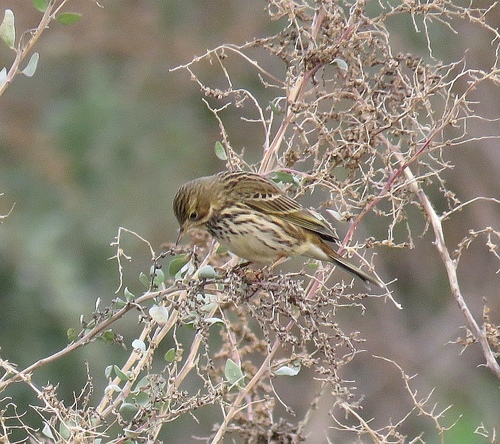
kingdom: Animalia
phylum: Chordata
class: Aves
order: Passeriformes
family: Motacillidae
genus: Anthus
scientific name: Anthus pratensis
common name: Meadow pipit
